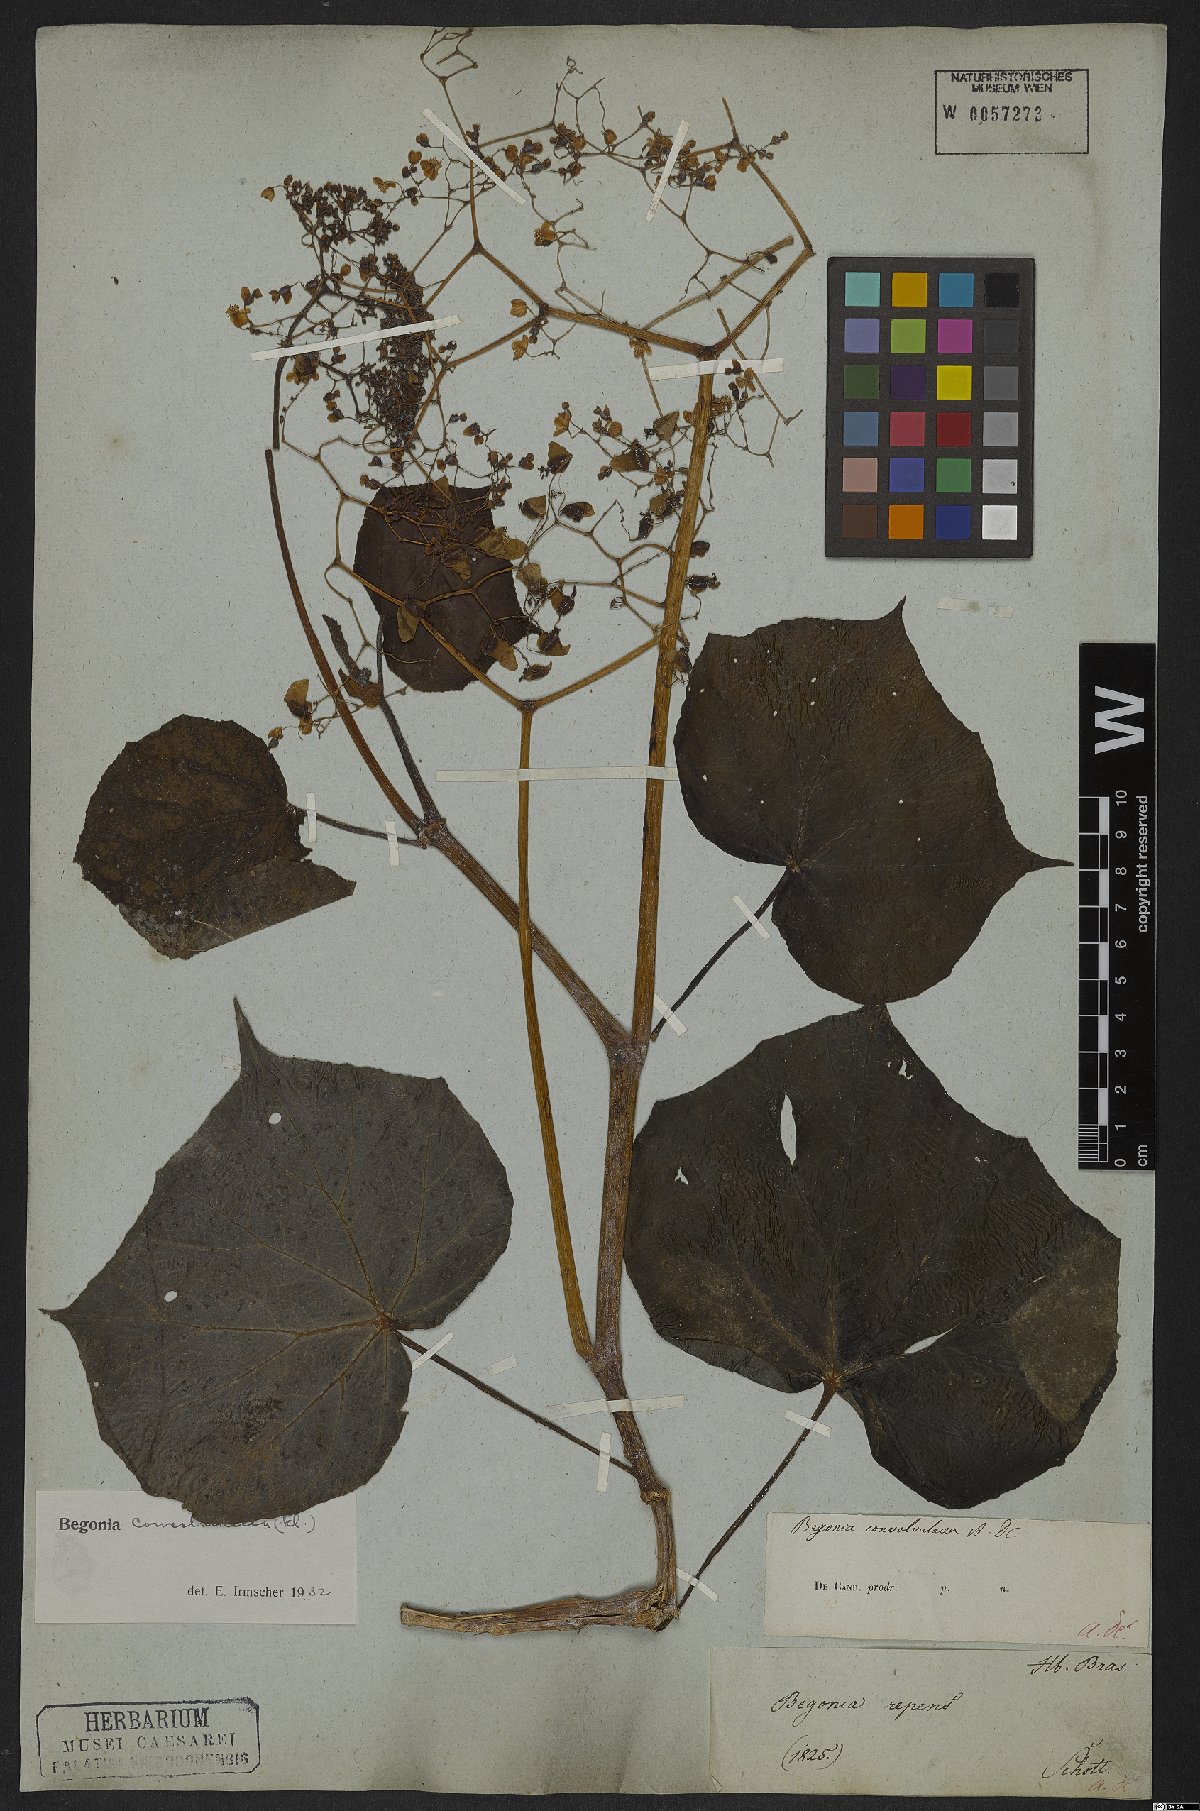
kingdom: Plantae
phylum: Tracheophyta
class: Magnoliopsida
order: Cucurbitales
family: Begoniaceae
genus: Begonia
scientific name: Begonia convolvulacea
